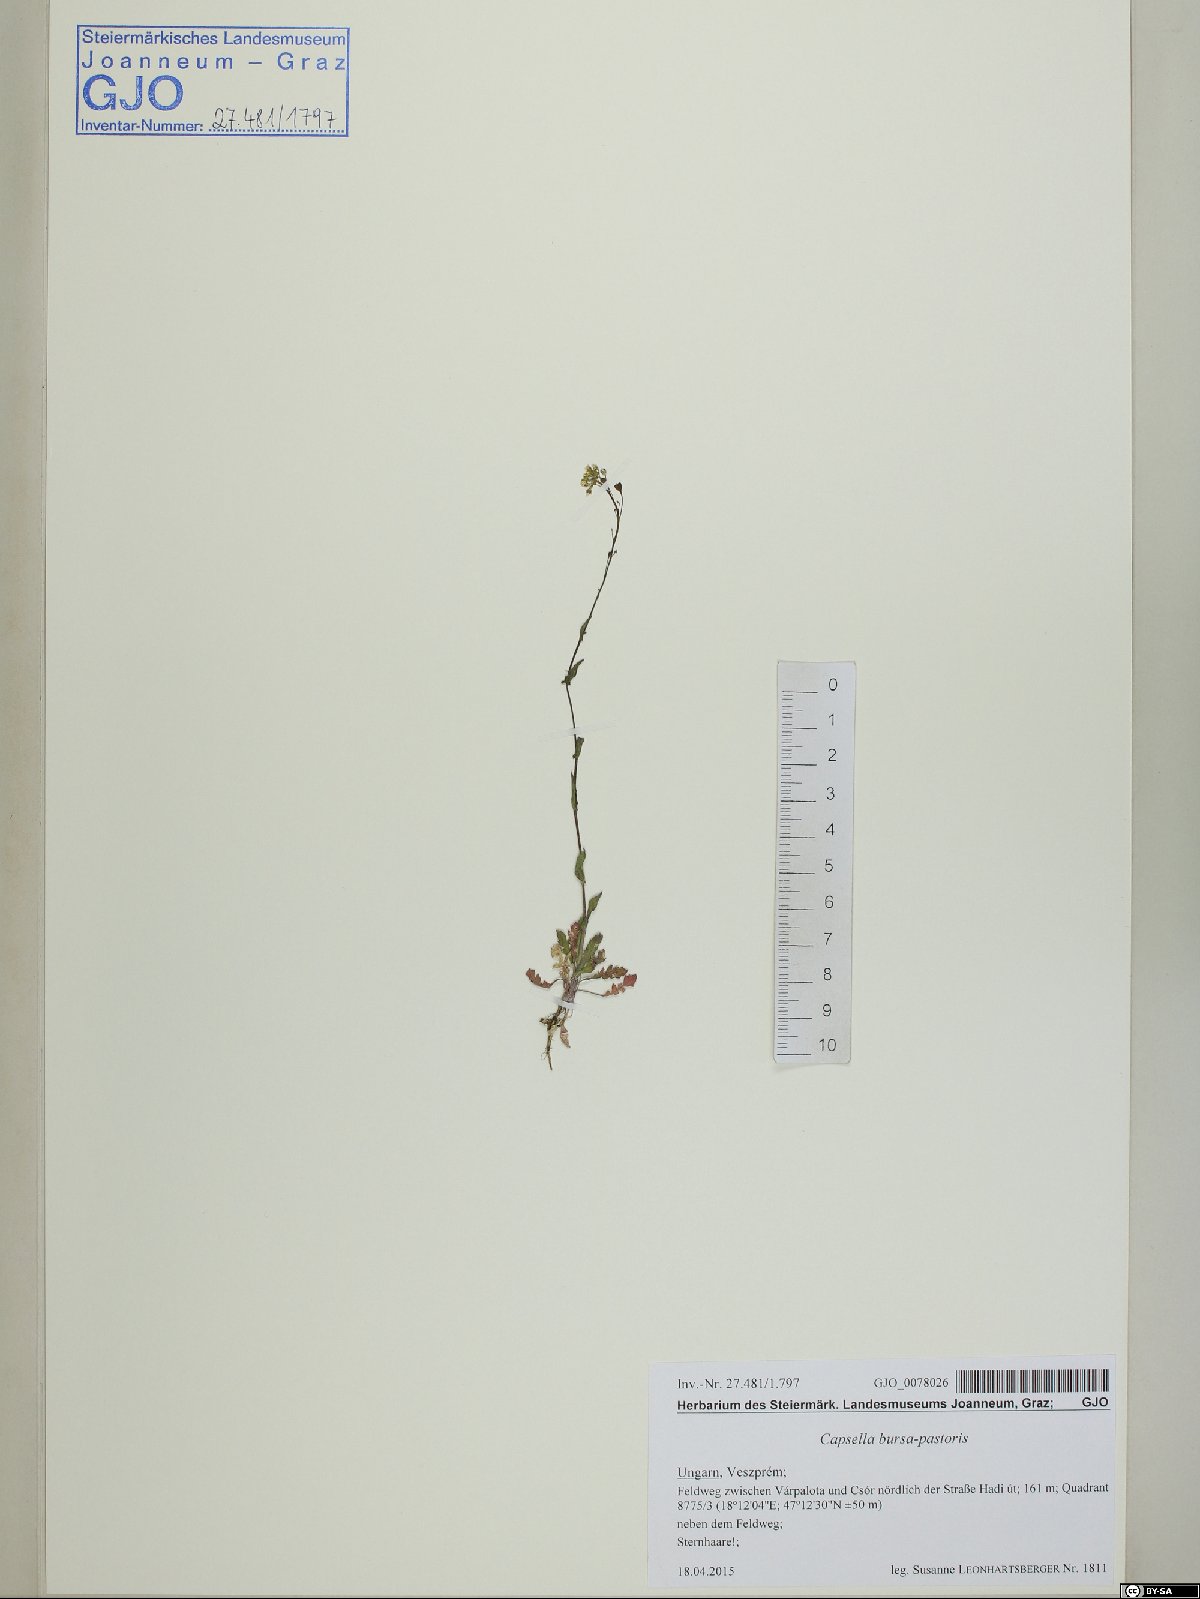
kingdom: Plantae
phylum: Tracheophyta
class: Magnoliopsida
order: Brassicales
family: Brassicaceae
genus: Capsella
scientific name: Capsella bursa-pastoris
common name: Shepherd's purse
